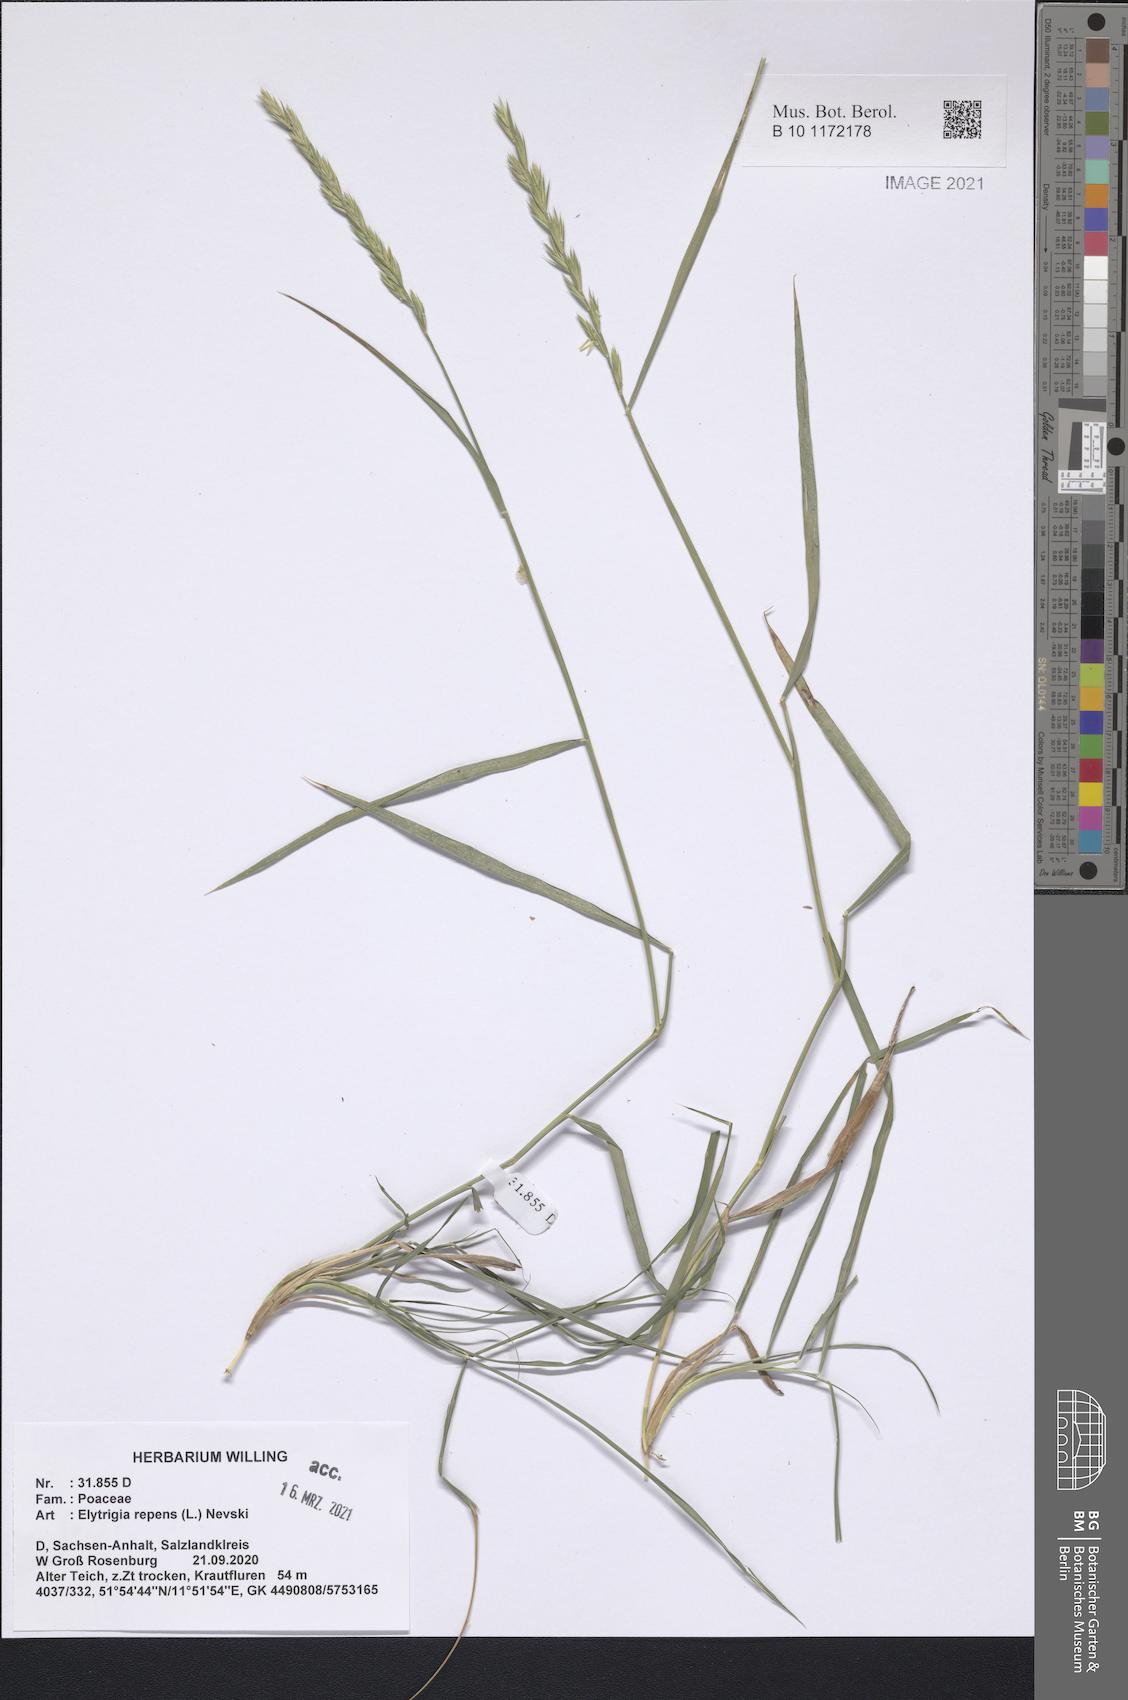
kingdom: Plantae
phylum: Tracheophyta
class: Liliopsida
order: Poales
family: Poaceae
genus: Elymus
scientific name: Elymus repens
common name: Quackgrass
